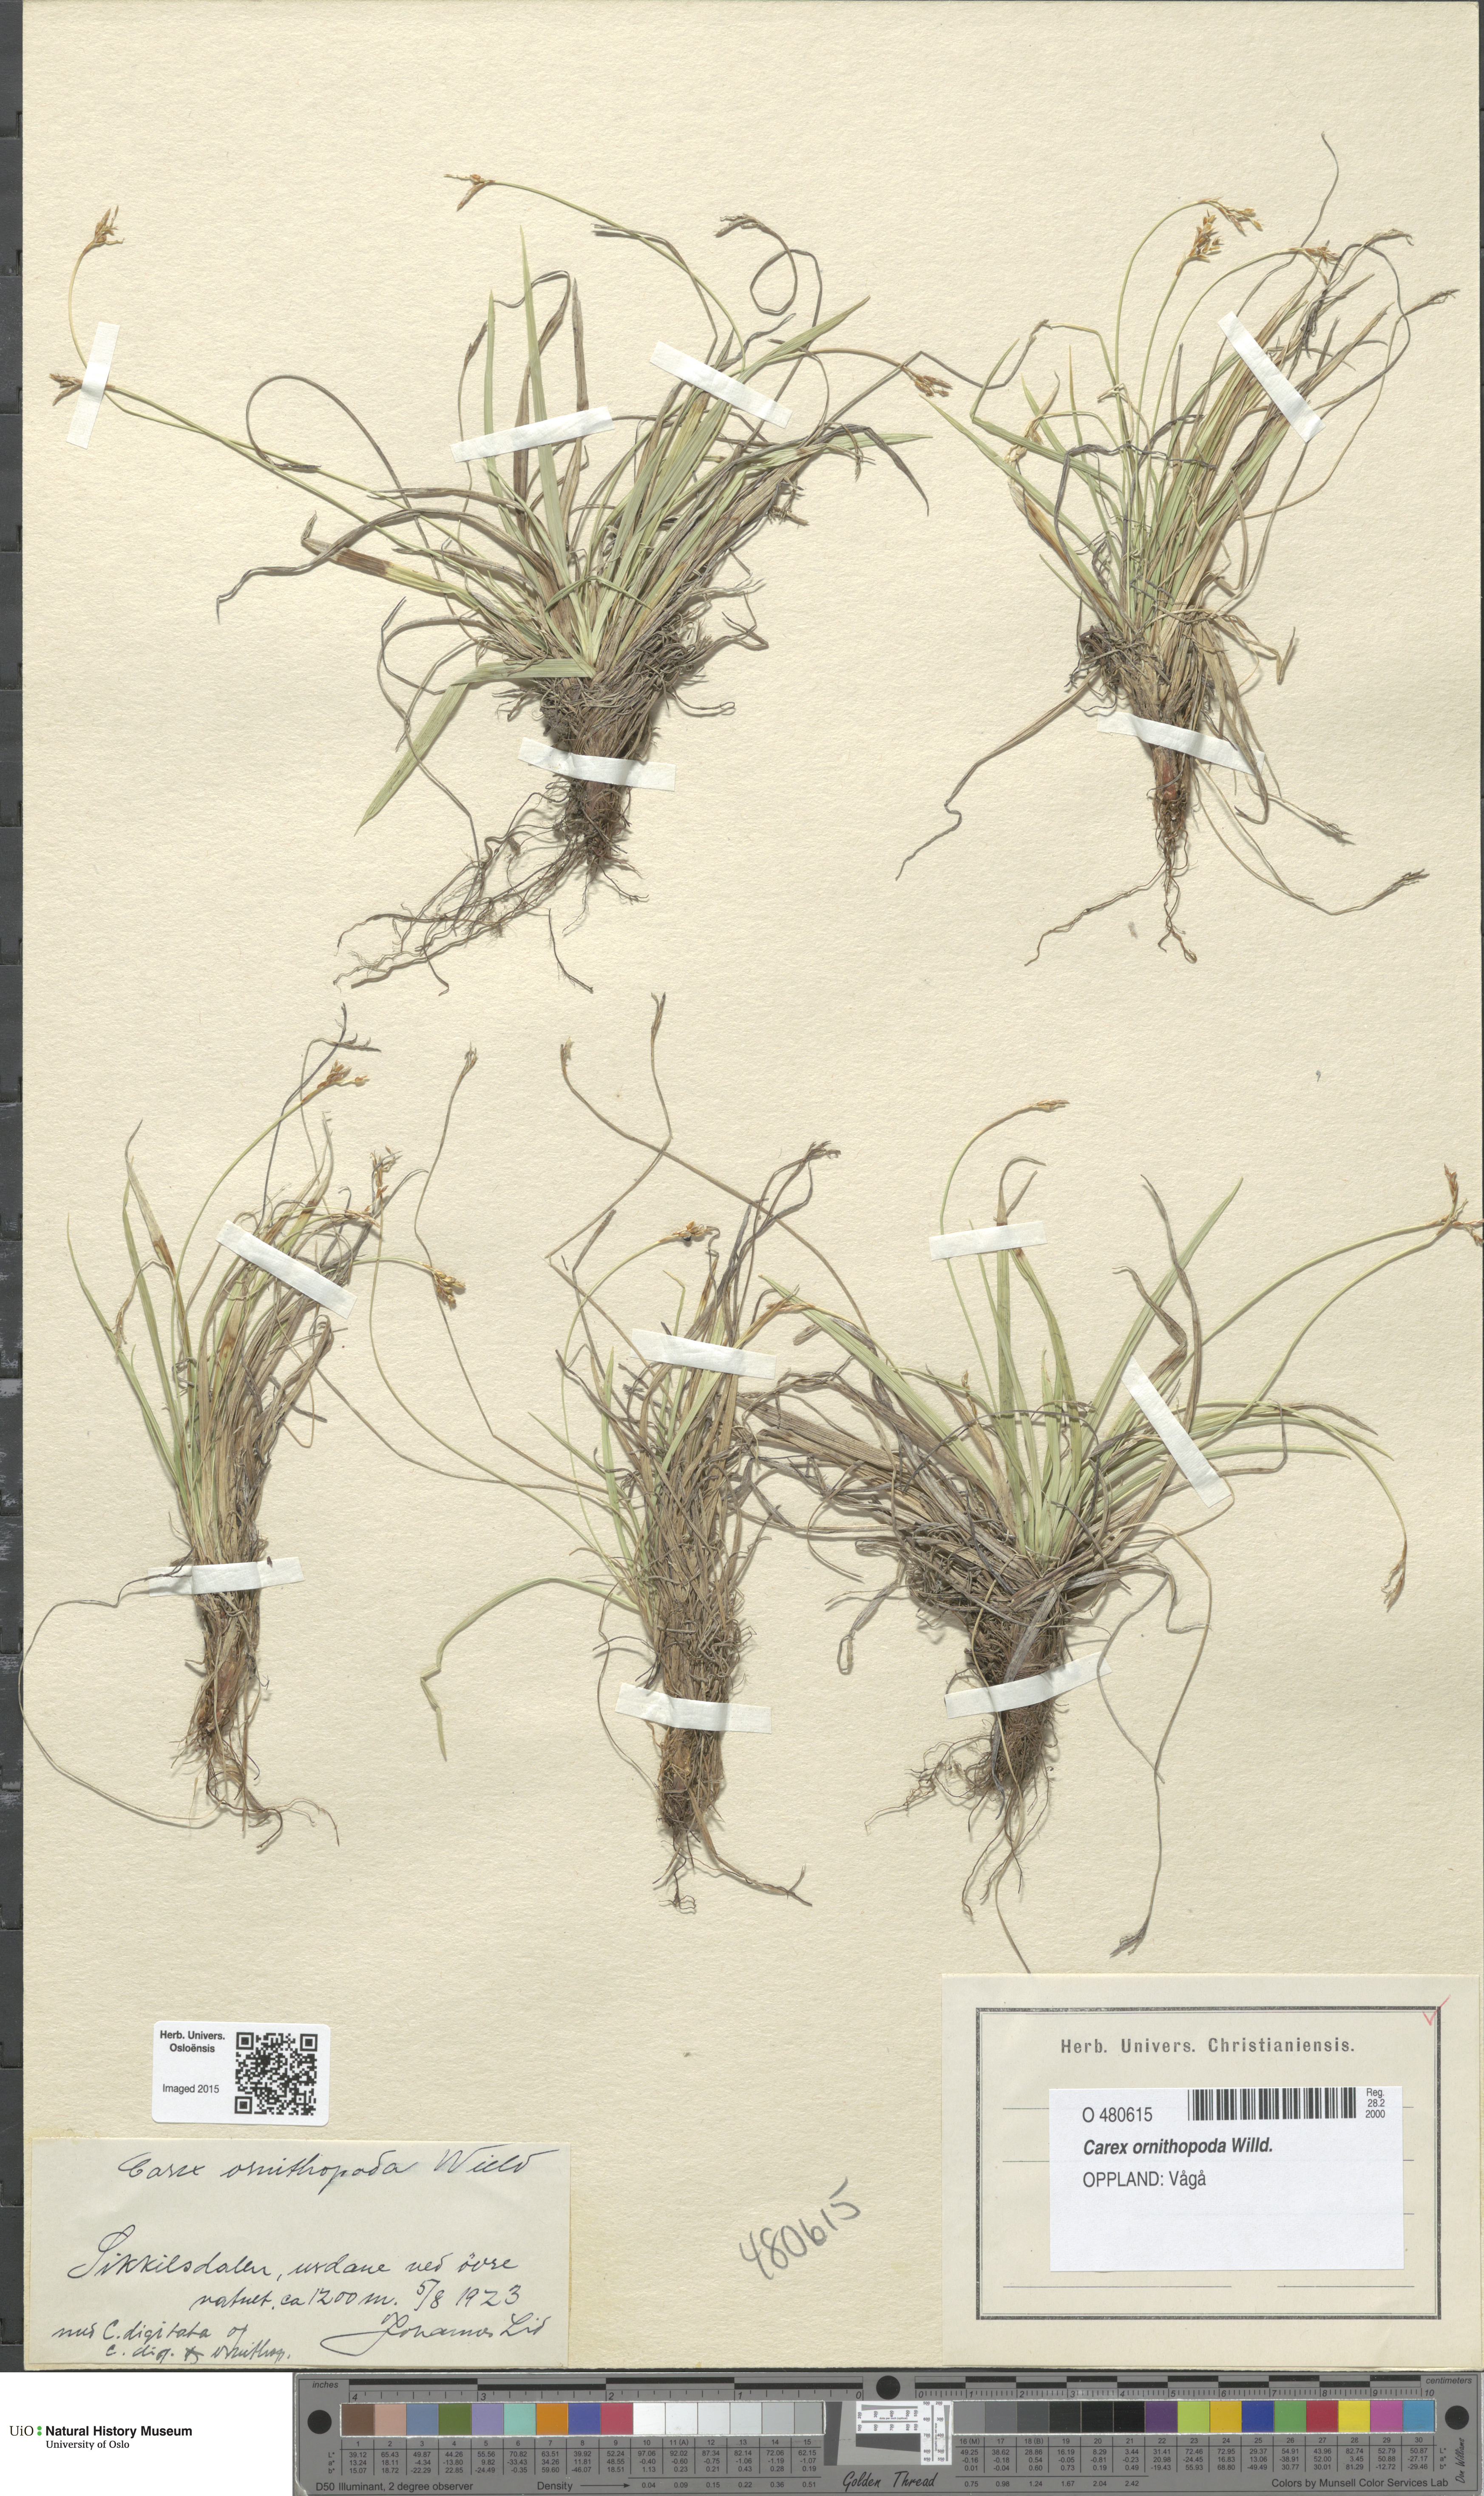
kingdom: Plantae
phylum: Tracheophyta
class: Liliopsida
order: Poales
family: Cyperaceae
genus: Carex
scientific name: Carex ornithopoda
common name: Bird's-foot sedge
